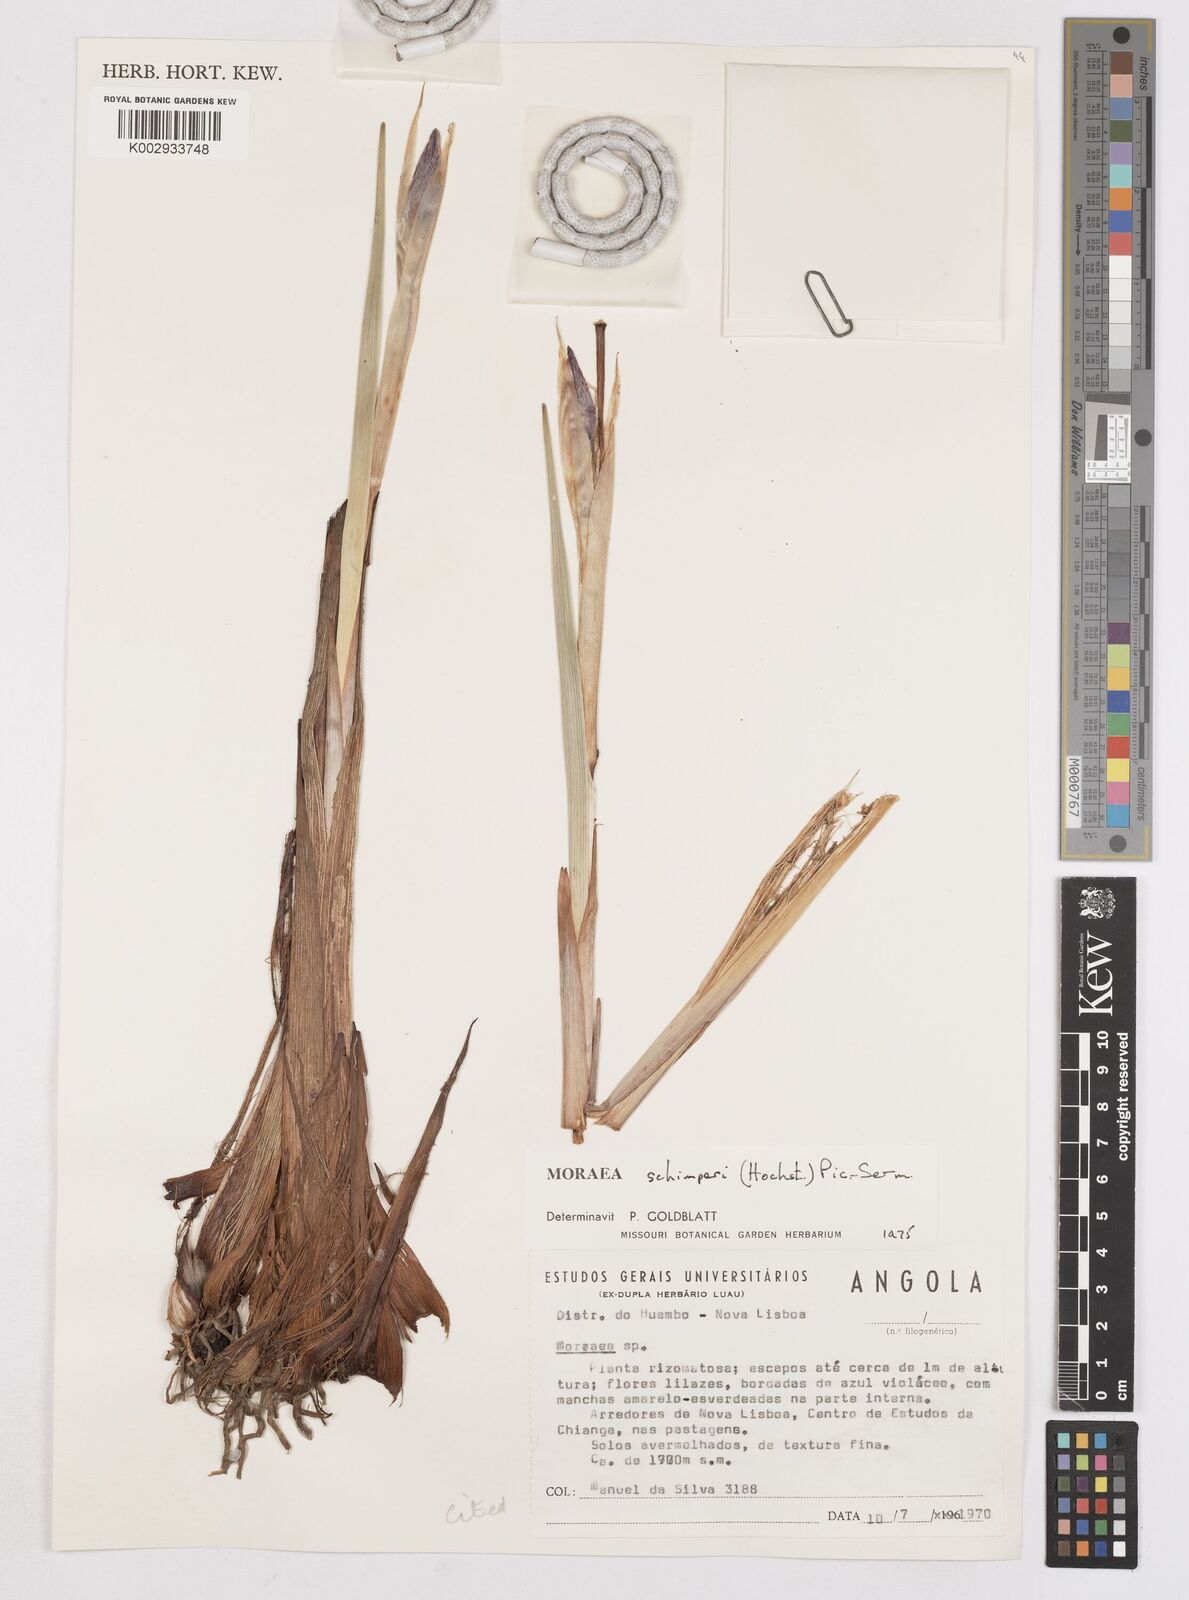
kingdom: Plantae
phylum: Tracheophyta
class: Liliopsida
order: Asparagales
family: Iridaceae
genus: Moraea
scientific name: Moraea schimperi
